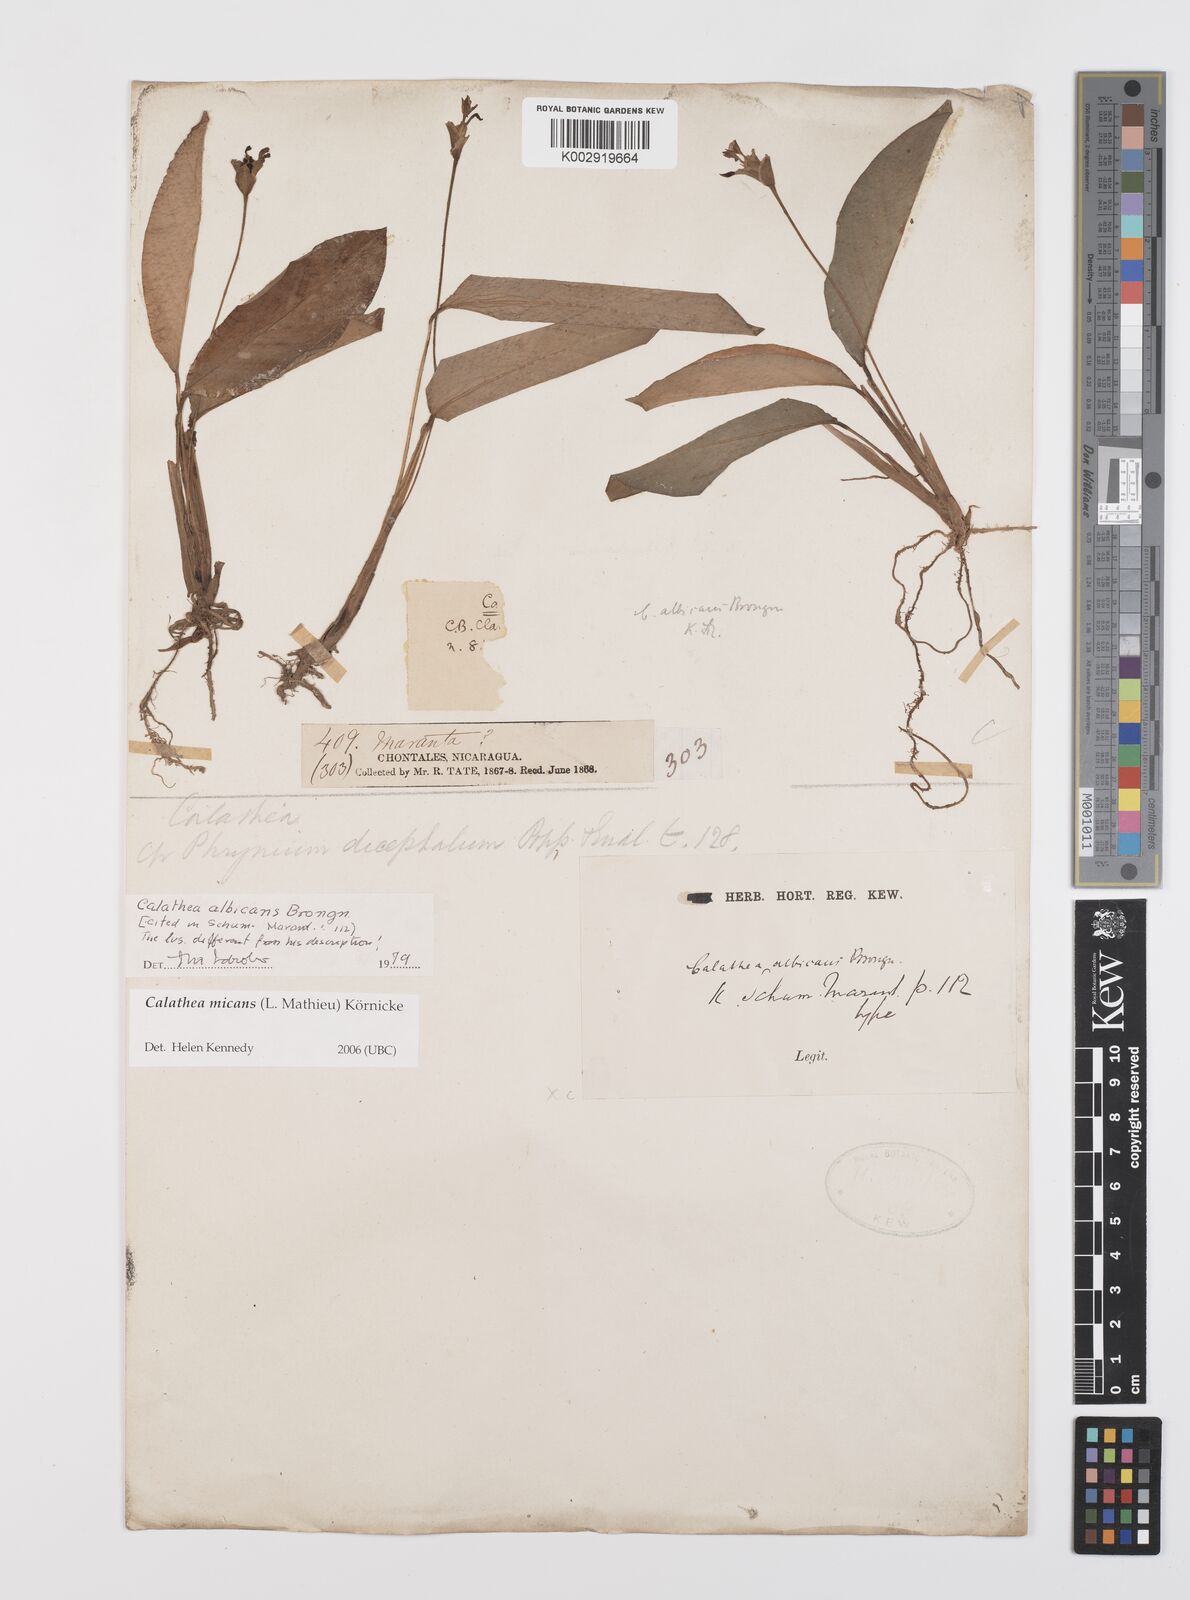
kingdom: Plantae
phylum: Tracheophyta
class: Liliopsida
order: Zingiberales
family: Marantaceae
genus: Goeppertia
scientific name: Goeppertia micans
